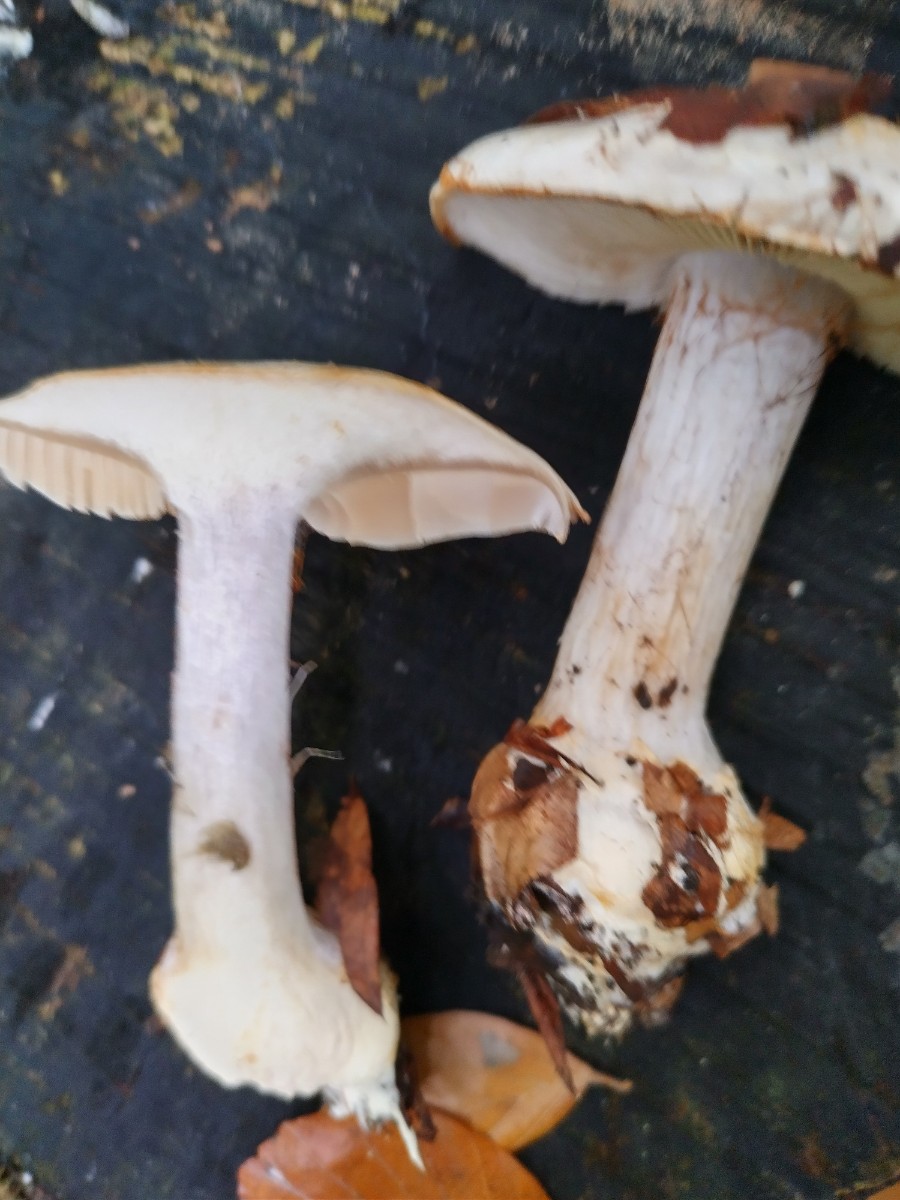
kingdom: Fungi
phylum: Basidiomycota
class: Agaricomycetes
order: Agaricales
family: Cortinariaceae
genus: Cortinarius
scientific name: Cortinarius anserinus
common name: bøge-slørhat
